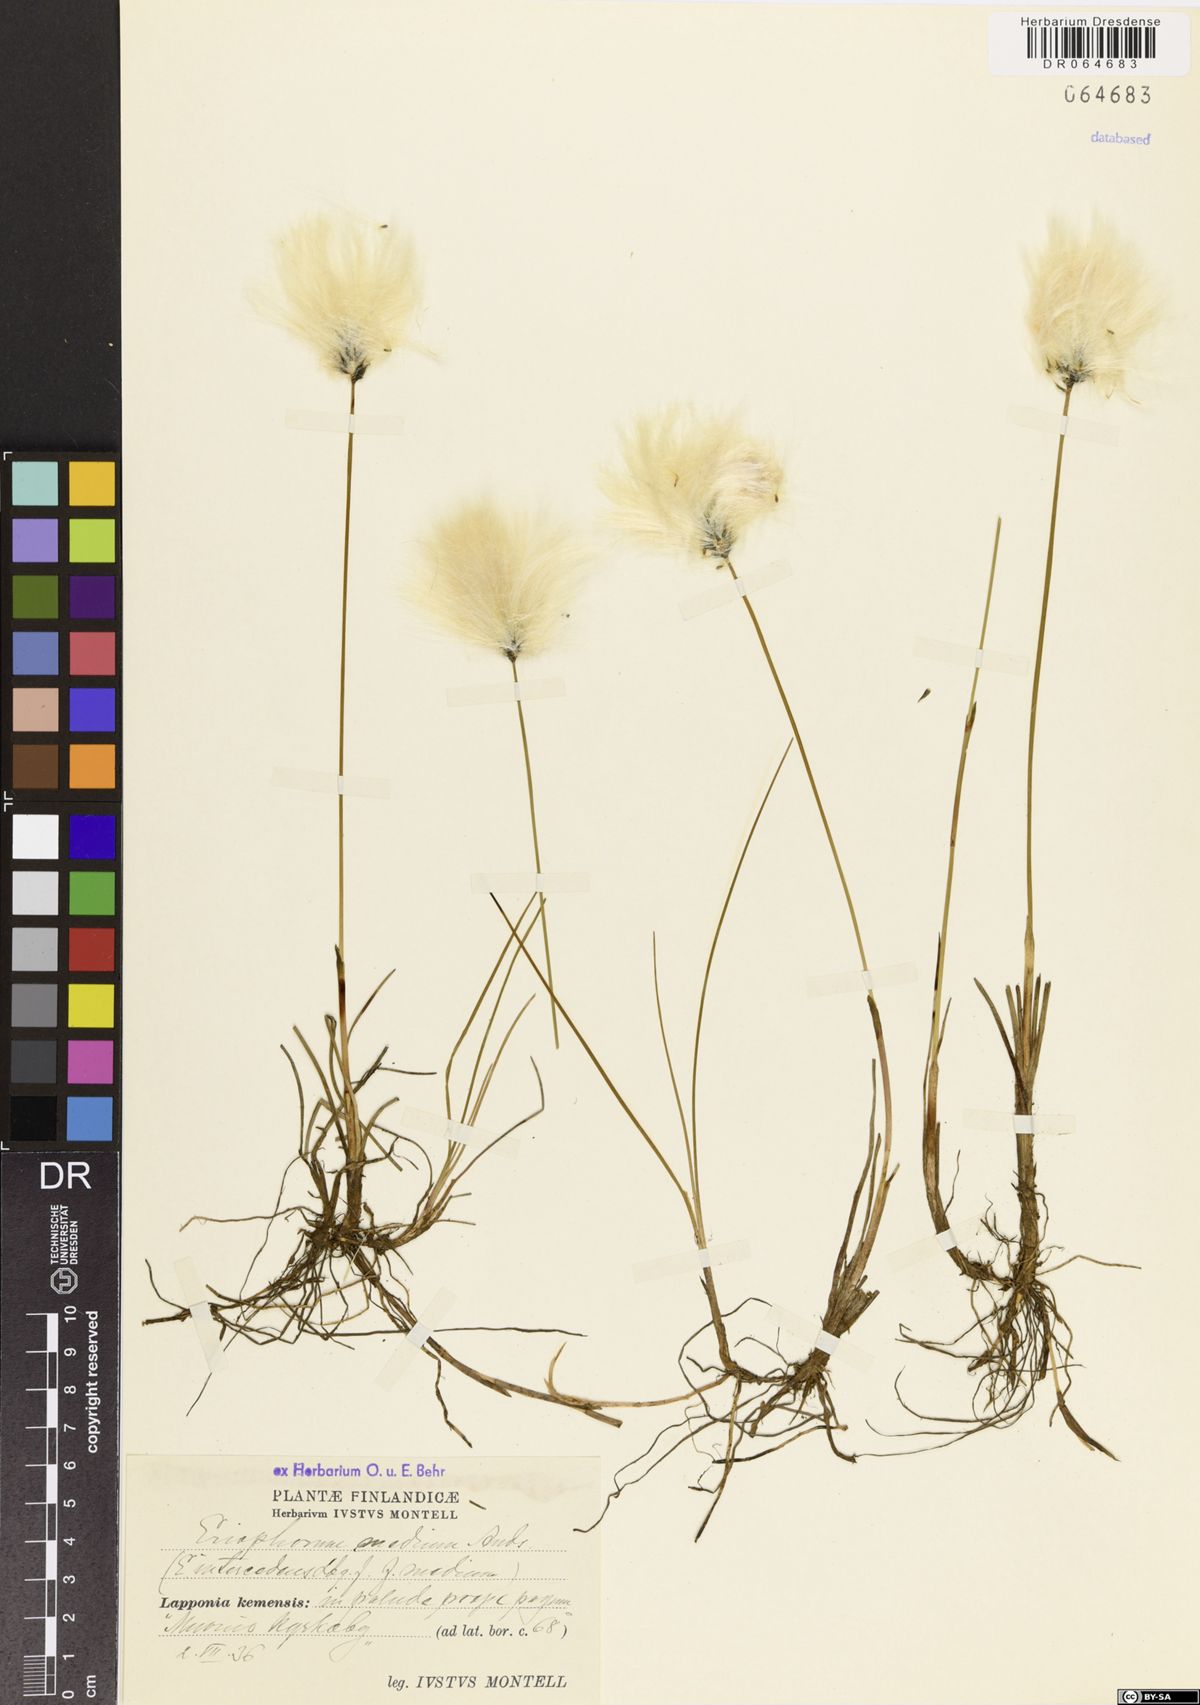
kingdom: Plantae
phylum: Tracheophyta
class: Liliopsida
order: Poales
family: Cyperaceae
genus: Eriophorum
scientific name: Eriophorum medium
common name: Intermediate cottongrass
